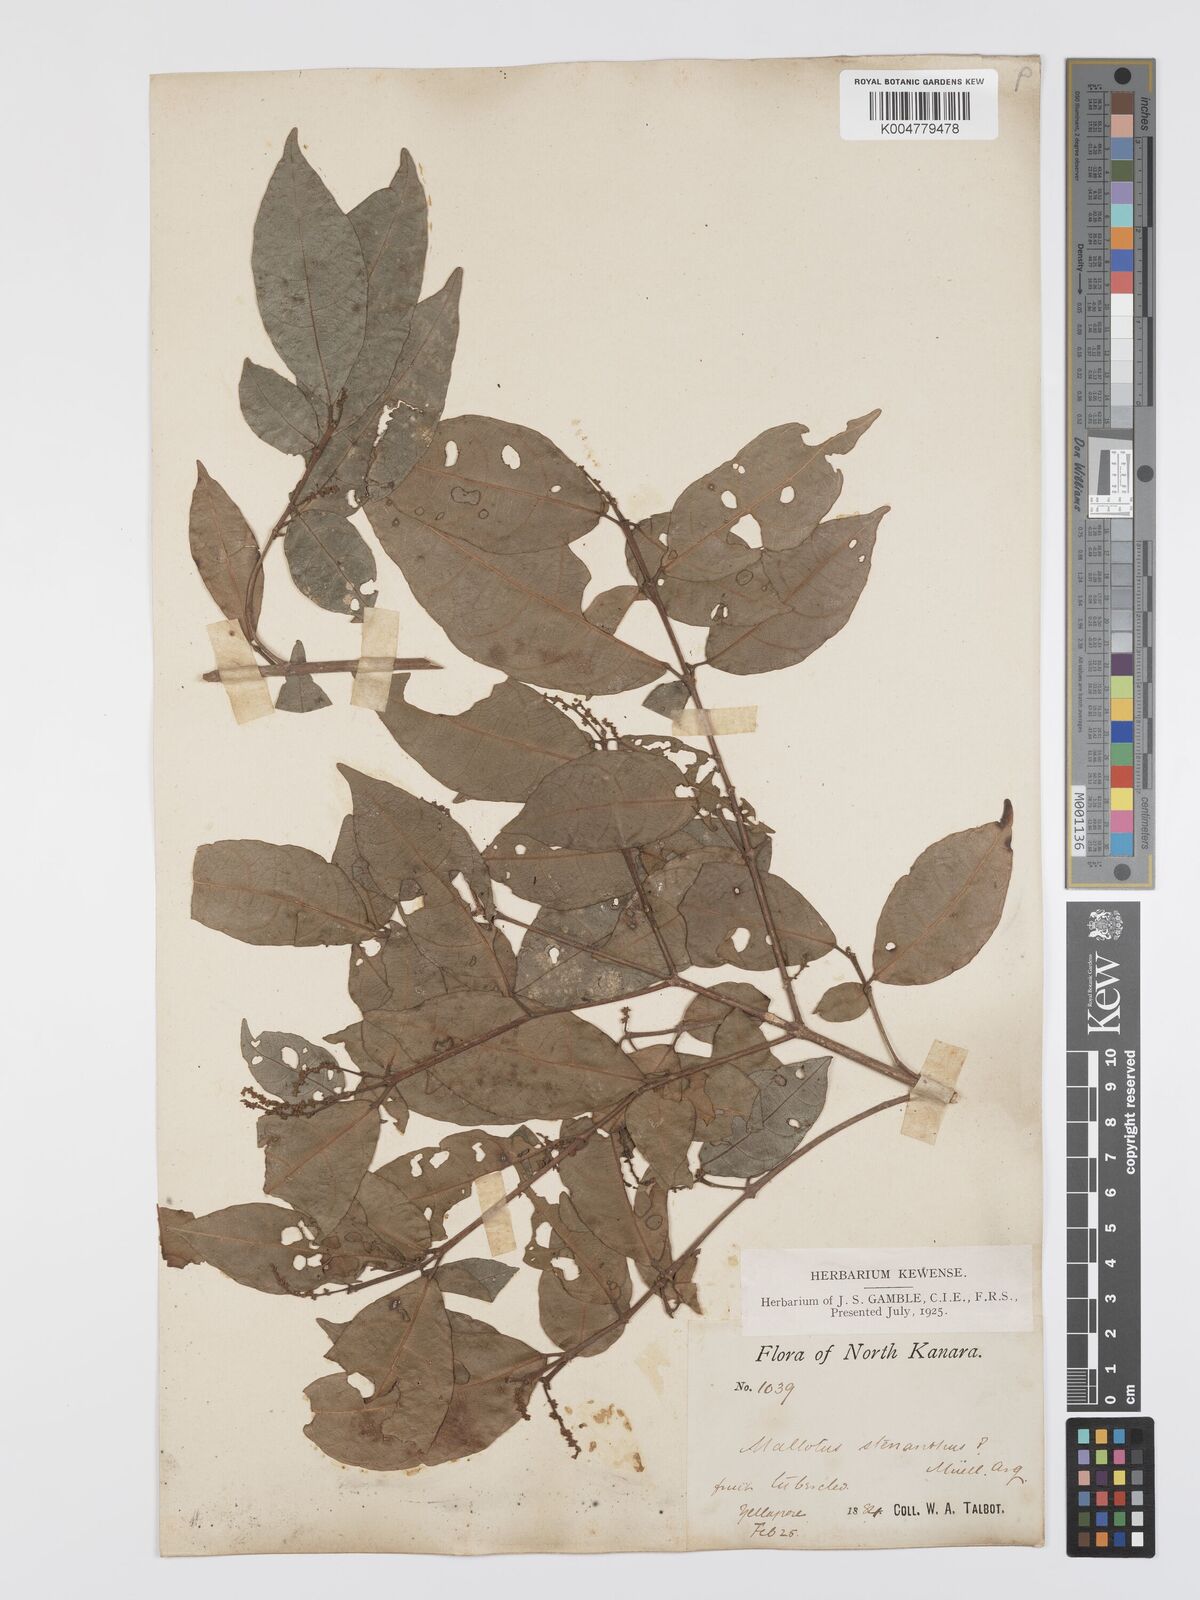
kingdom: Plantae
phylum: Tracheophyta
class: Magnoliopsida
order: Malpighiales
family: Euphorbiaceae
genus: Mallotus
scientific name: Mallotus resinosus
